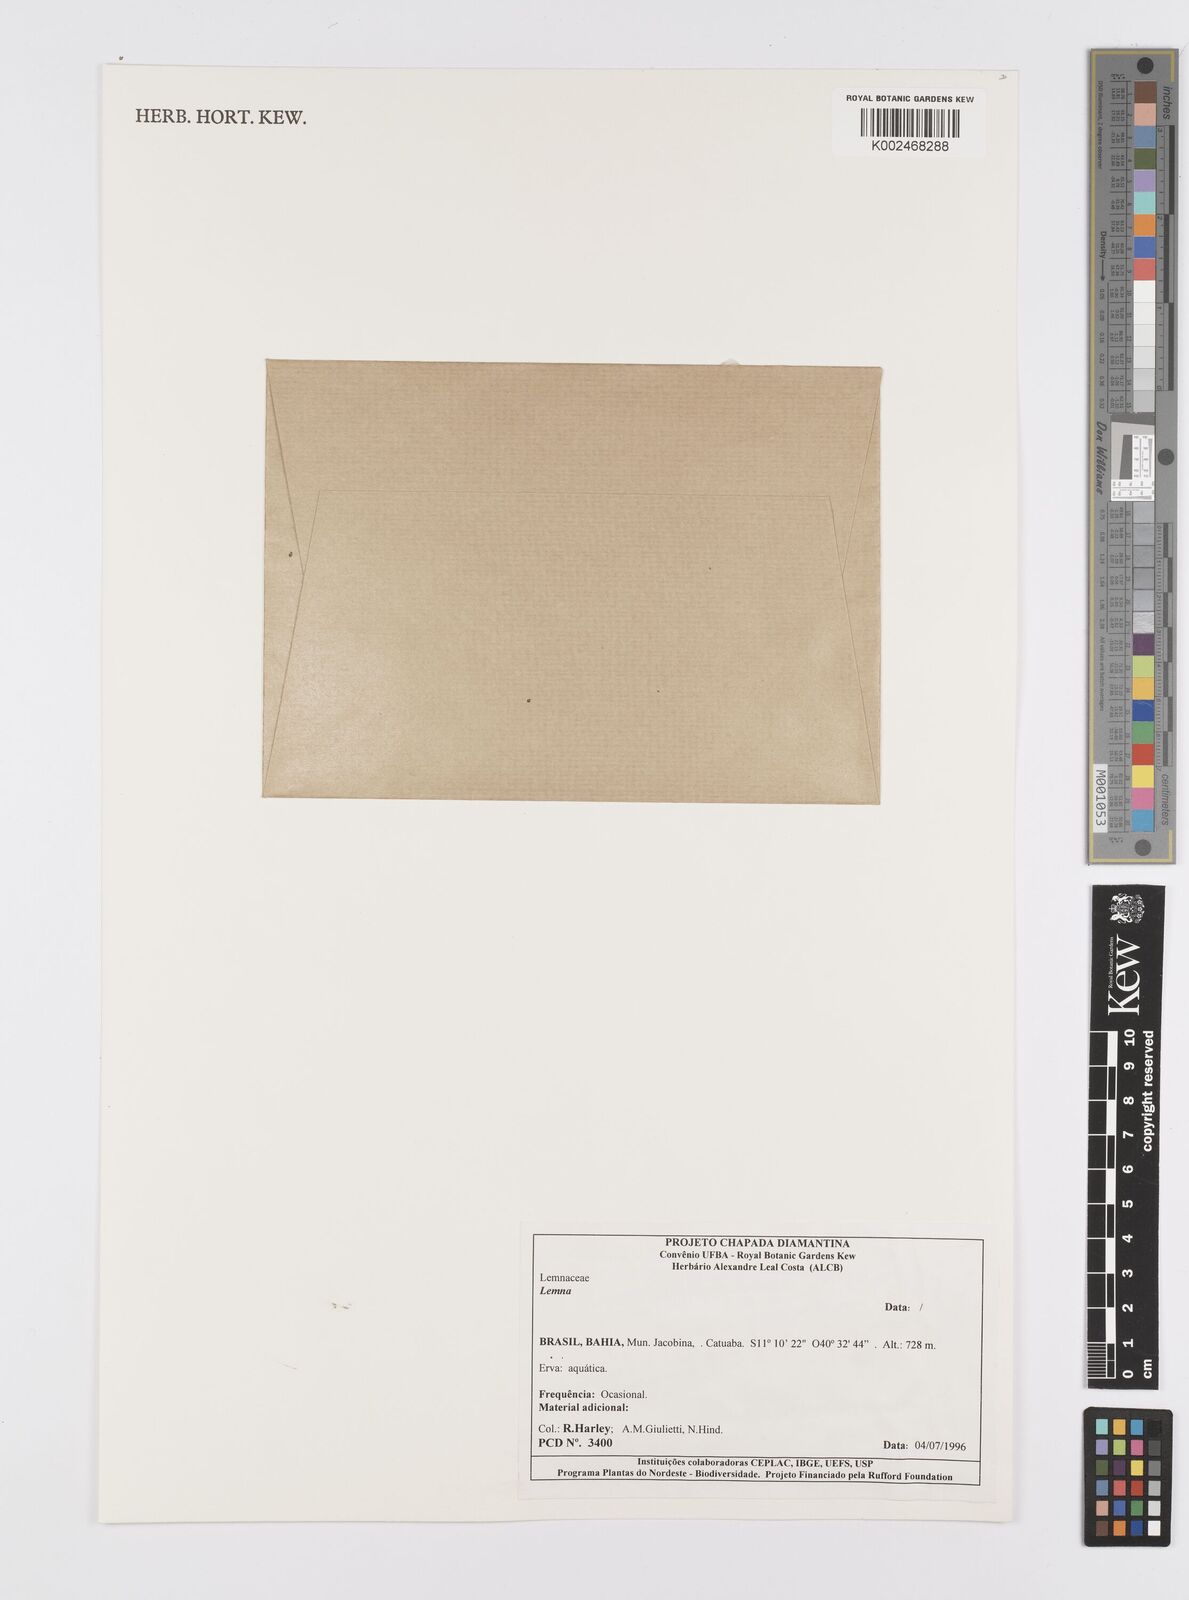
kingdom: Plantae
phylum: Tracheophyta
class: Liliopsida
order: Alismatales
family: Araceae
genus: Lemna
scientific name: Lemna
